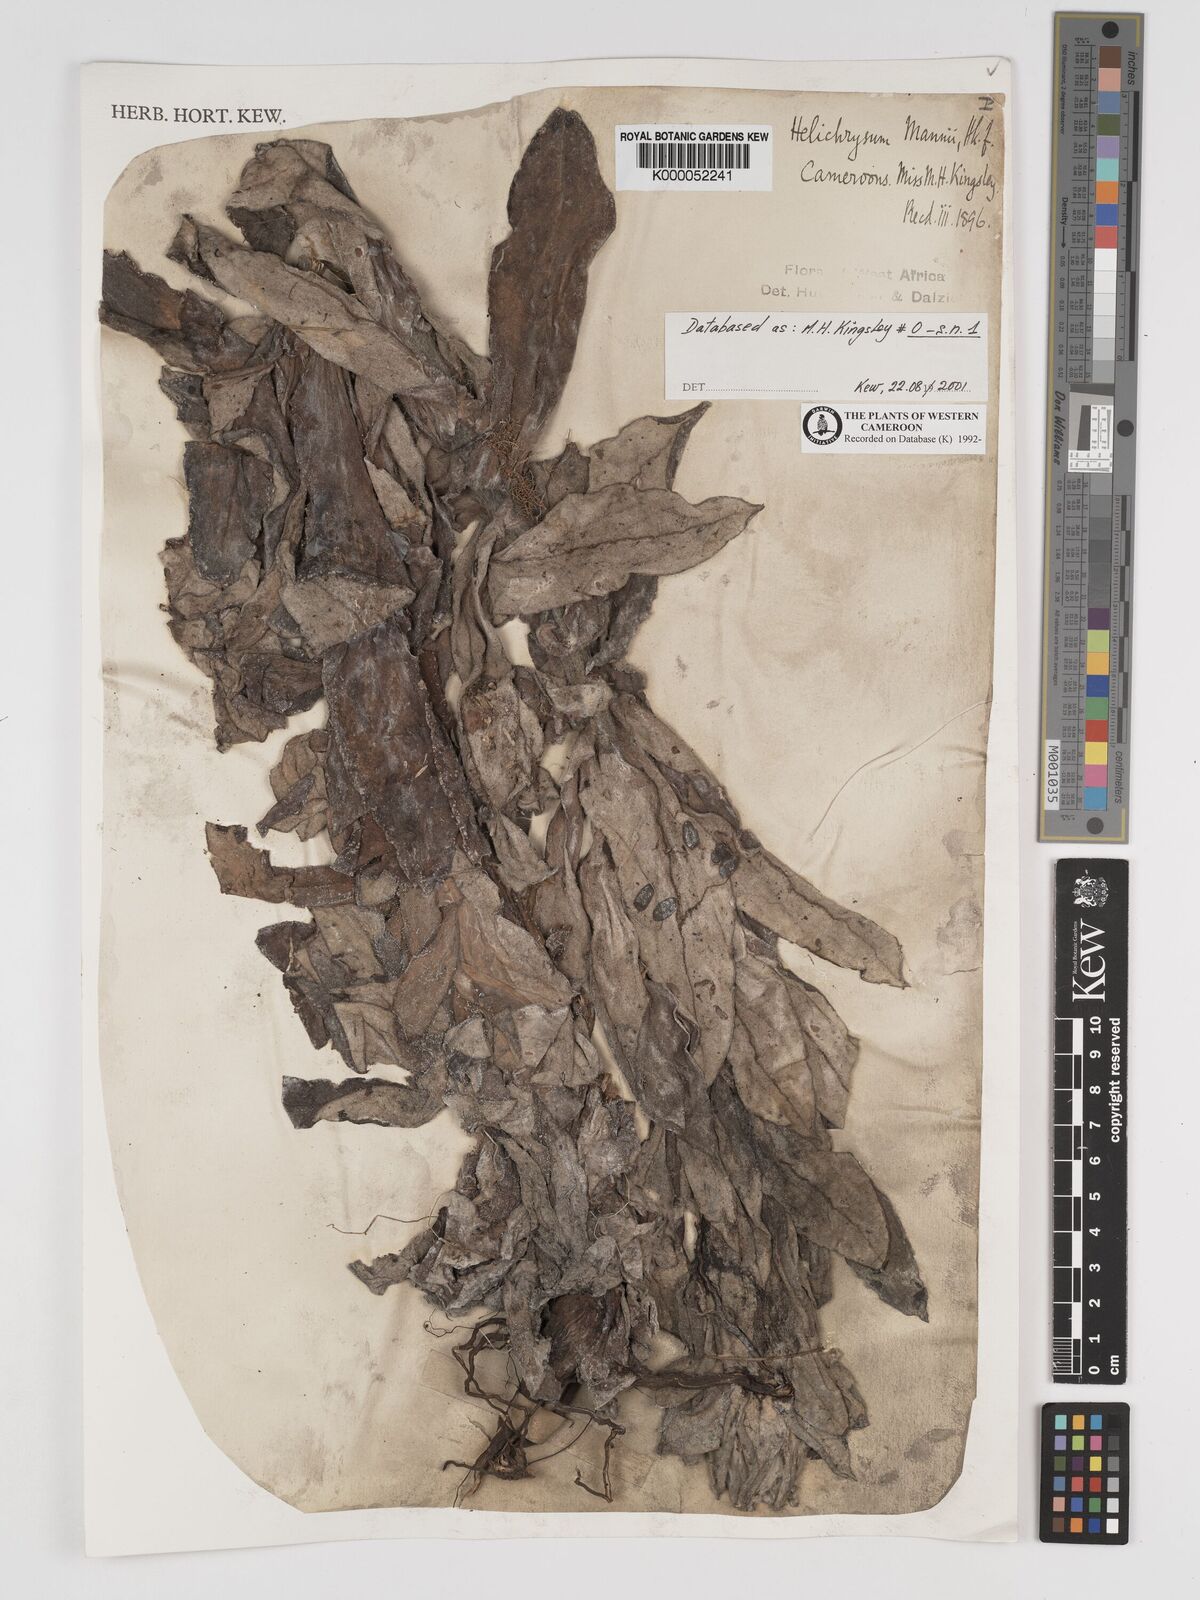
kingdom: Plantae
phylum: Tracheophyta
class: Magnoliopsida
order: Asterales
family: Asteraceae
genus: Helichrysum
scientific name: Helichrysum mannii
